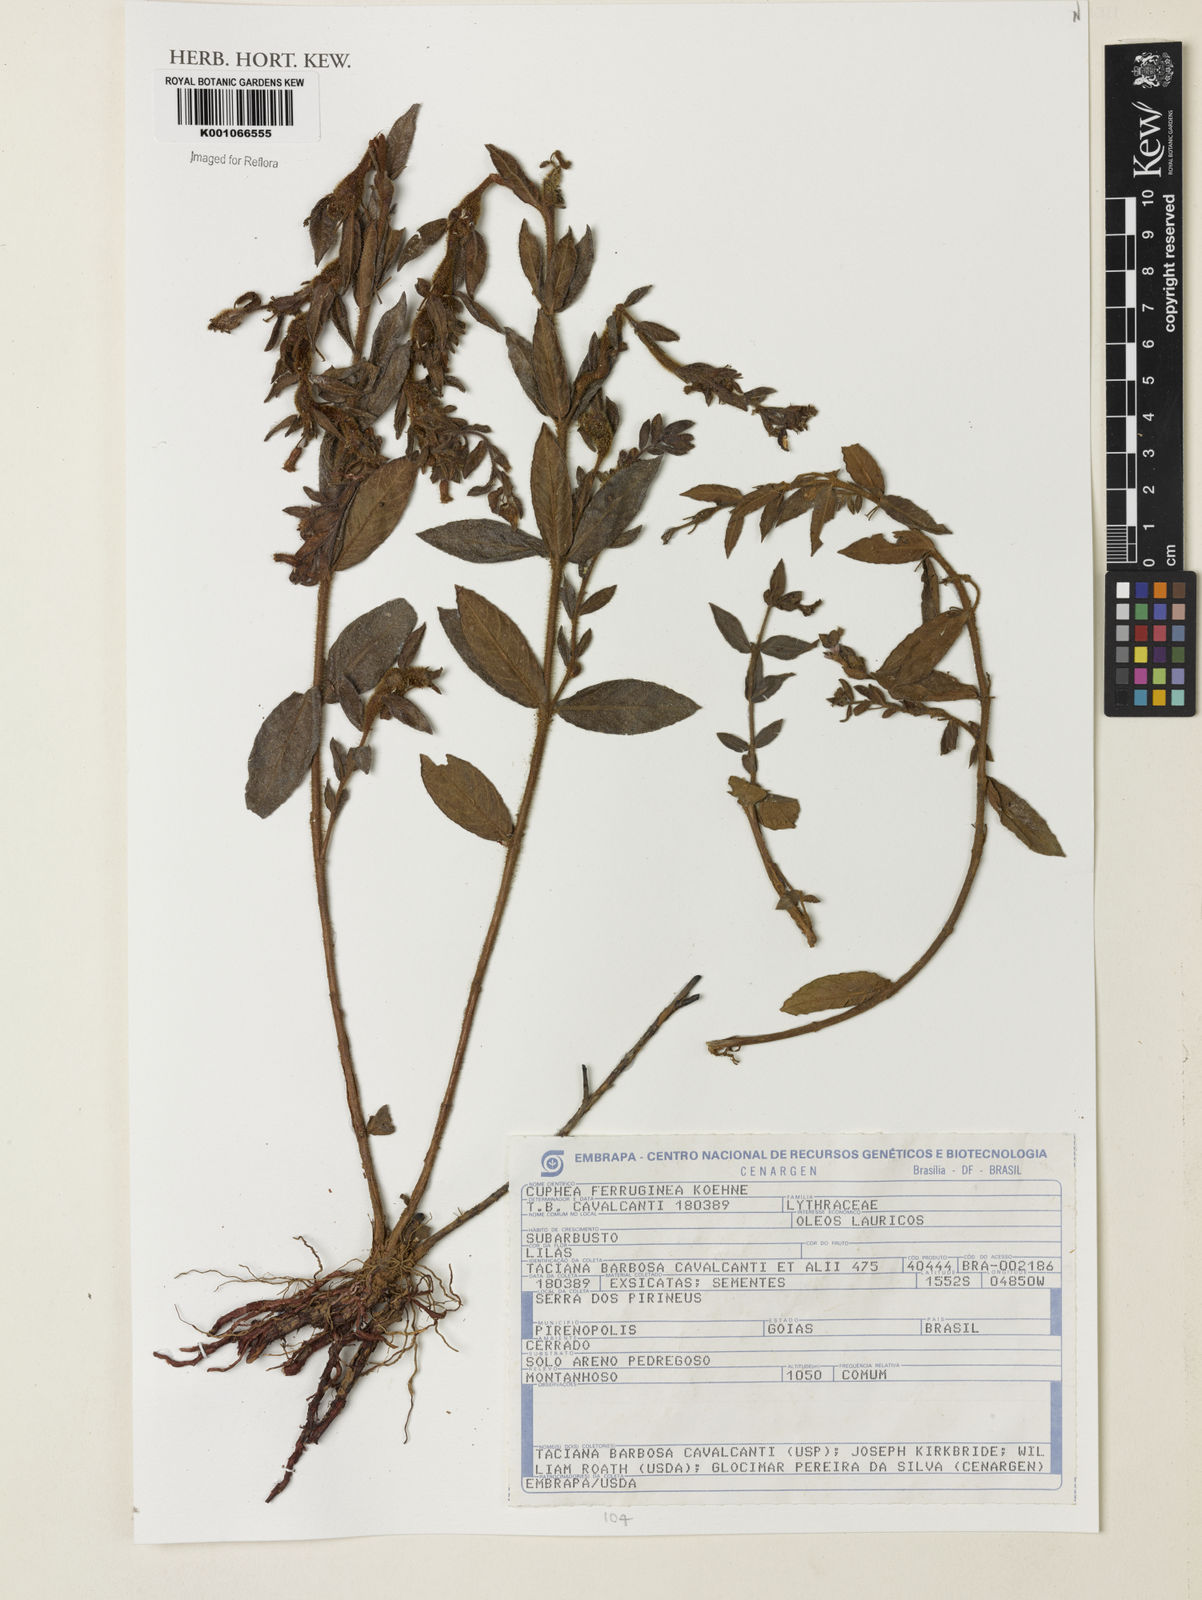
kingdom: Plantae
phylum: Tracheophyta
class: Magnoliopsida
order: Myrtales
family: Lythraceae
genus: Cuphea
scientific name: Cuphea ferruginea
